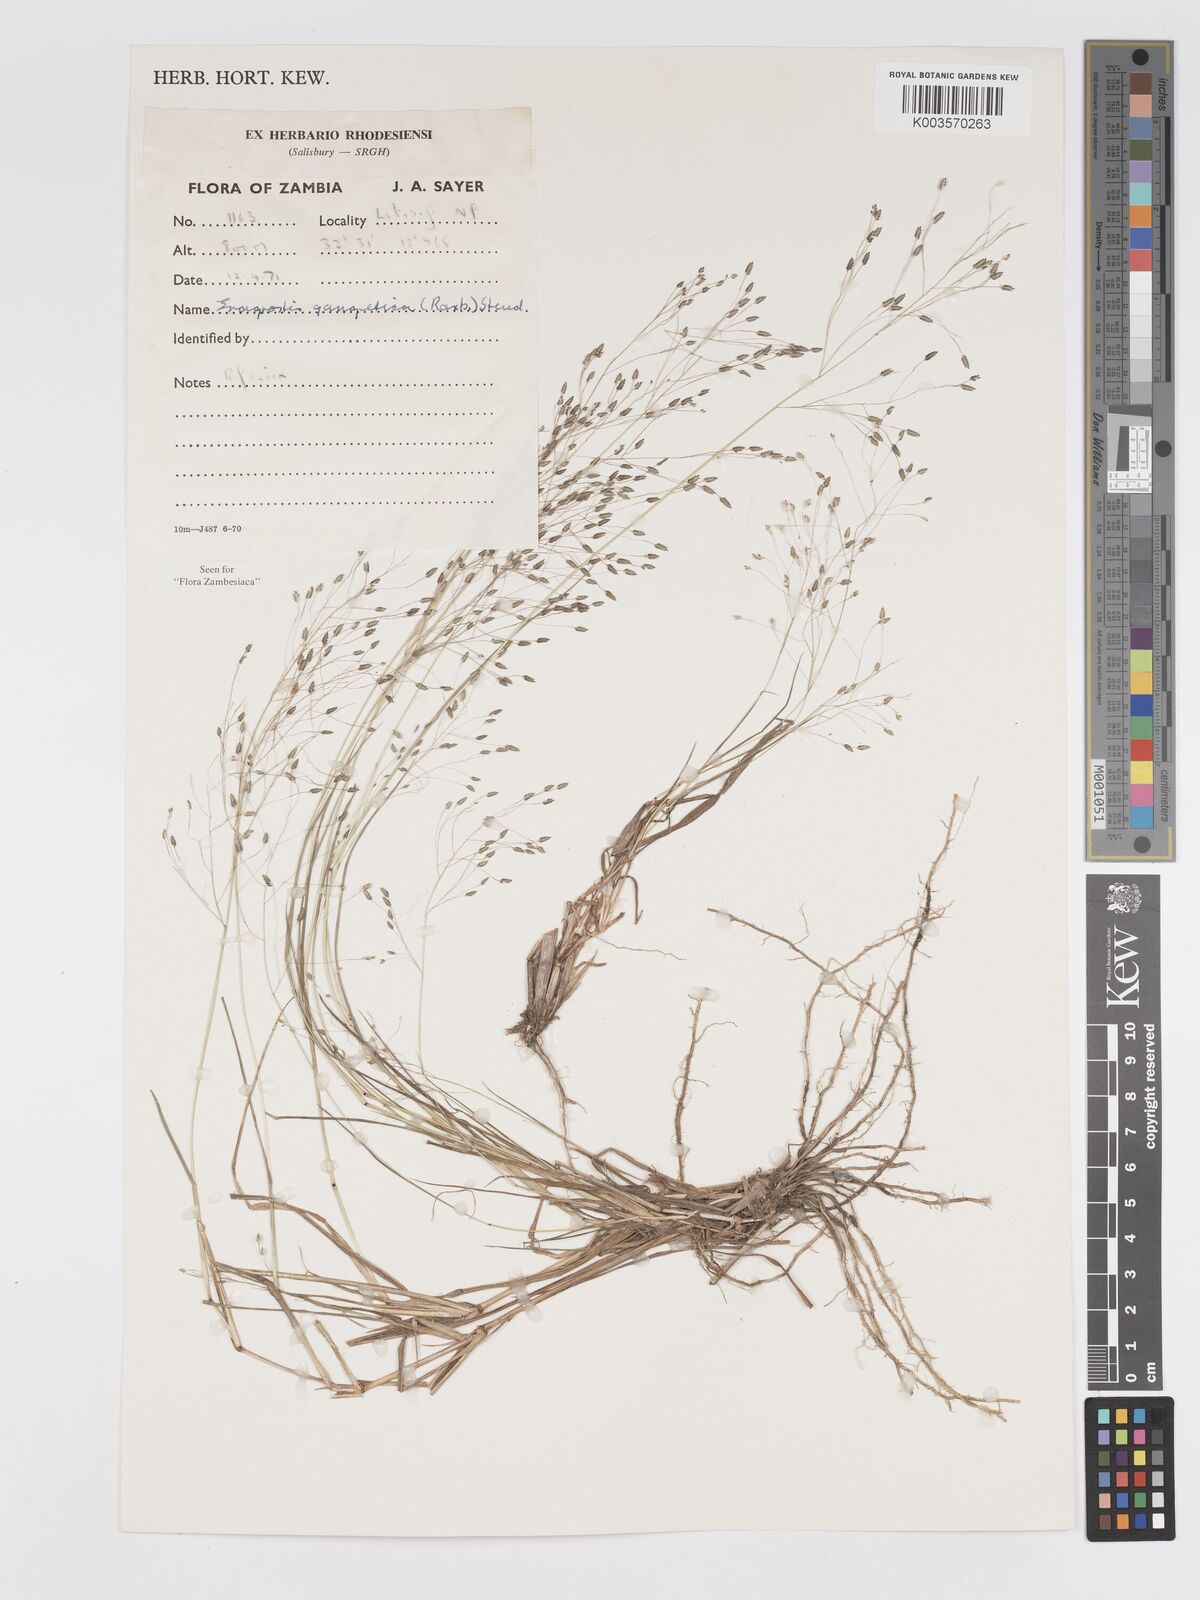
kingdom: Plantae
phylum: Tracheophyta
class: Liliopsida
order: Poales
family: Poaceae
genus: Eragrostis
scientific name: Eragrostis gangetica
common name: Slimflower lovegrass
